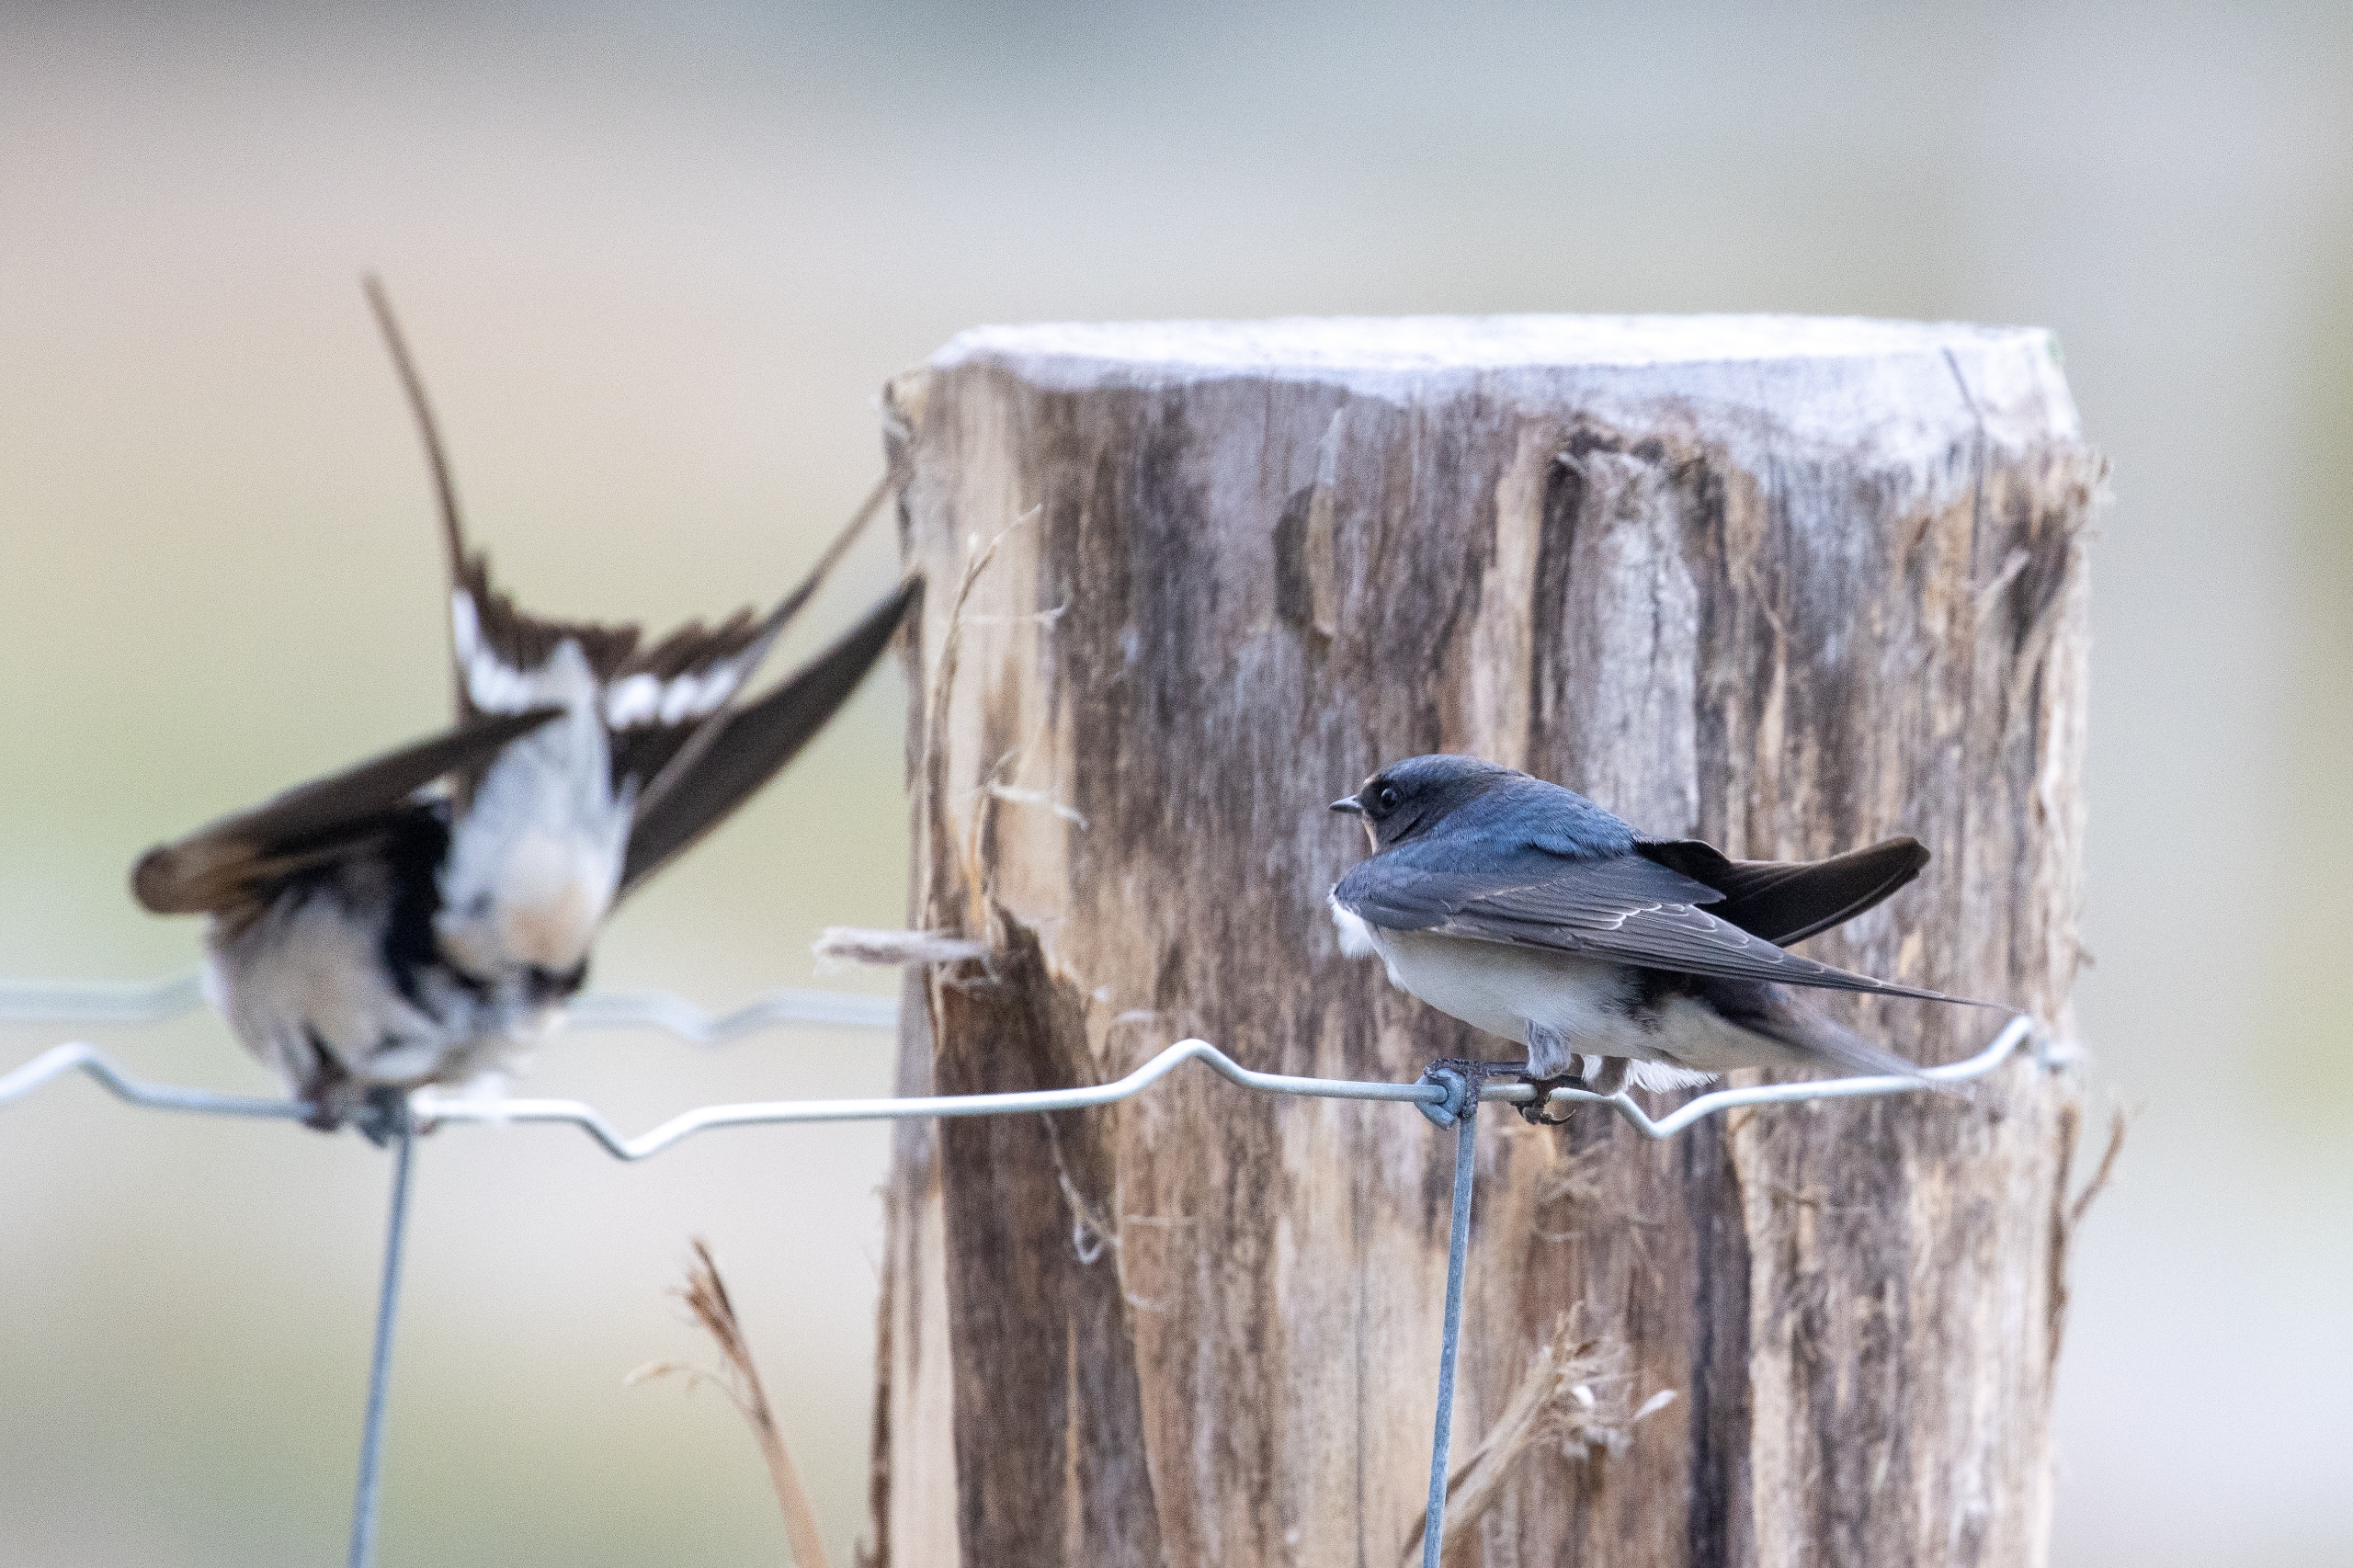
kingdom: Animalia
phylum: Chordata
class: Aves
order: Passeriformes
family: Hirundinidae
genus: Hirundo
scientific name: Hirundo rustica
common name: Landsvale
